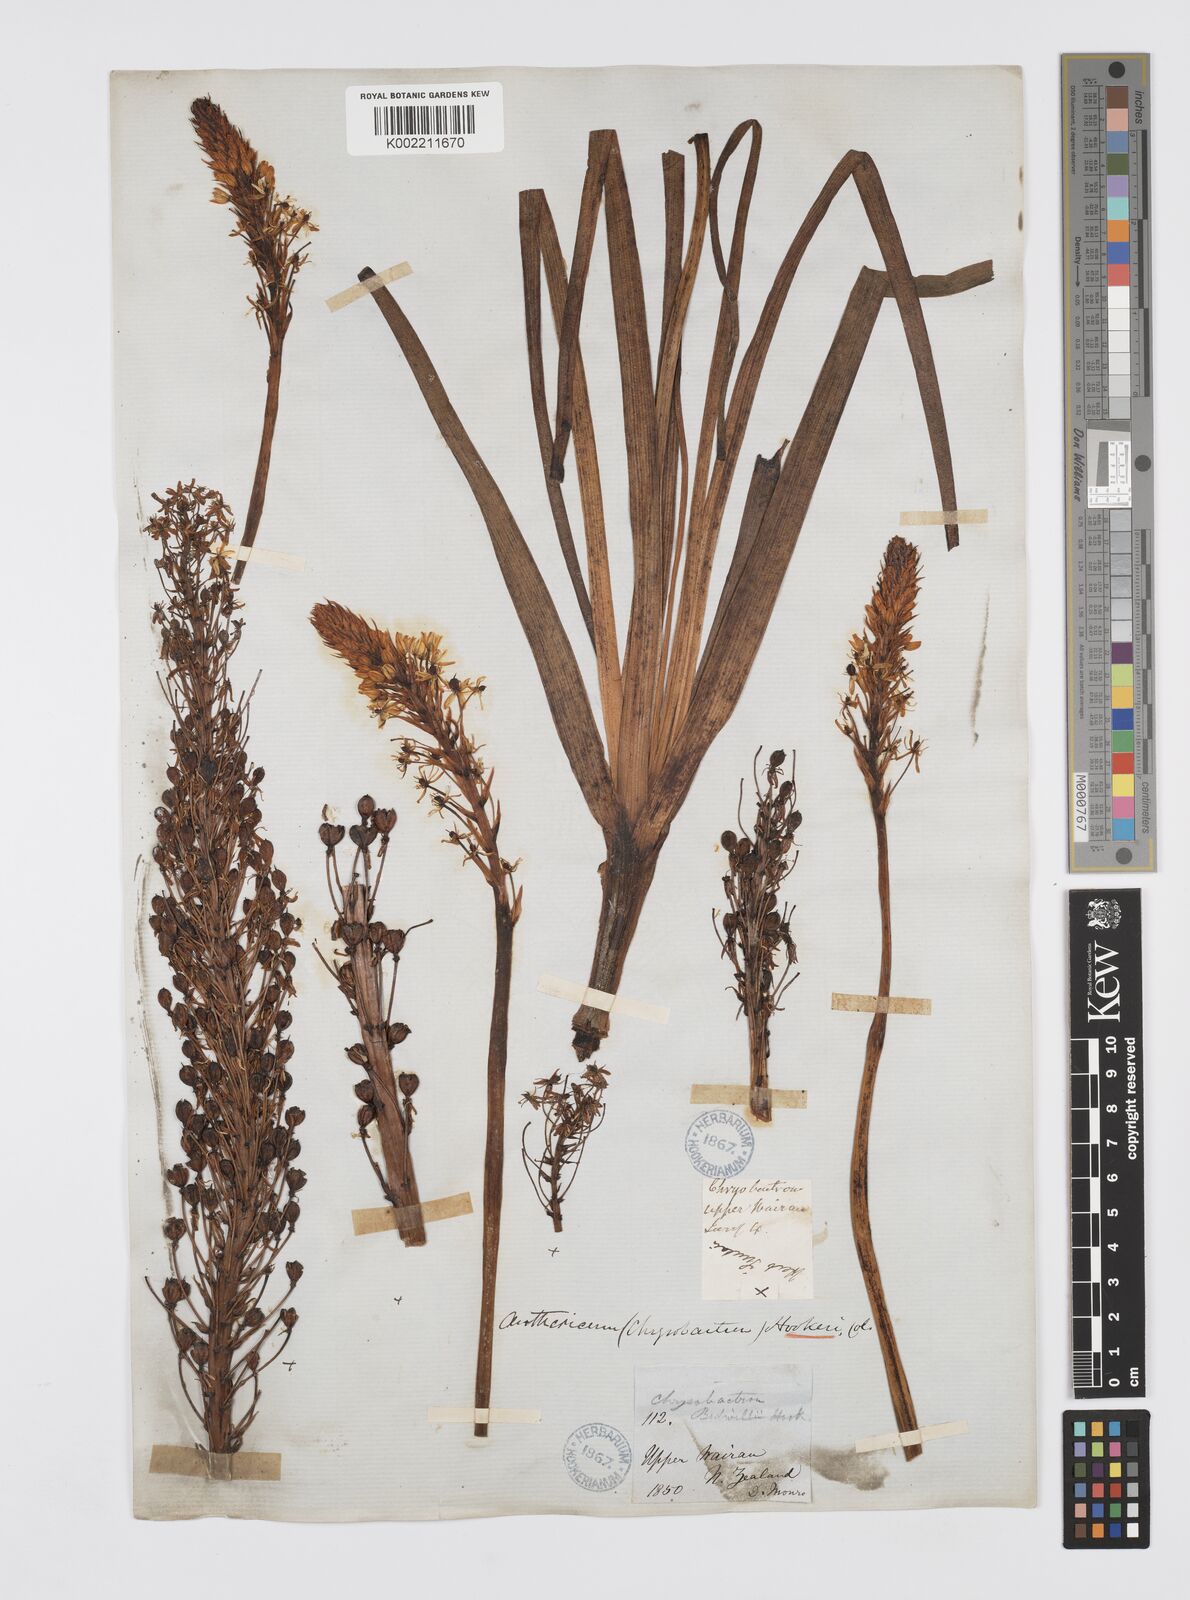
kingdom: Plantae
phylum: Tracheophyta
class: Liliopsida
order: Asparagales
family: Asphodelaceae
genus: Bulbinella
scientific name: Bulbinella hookeri
